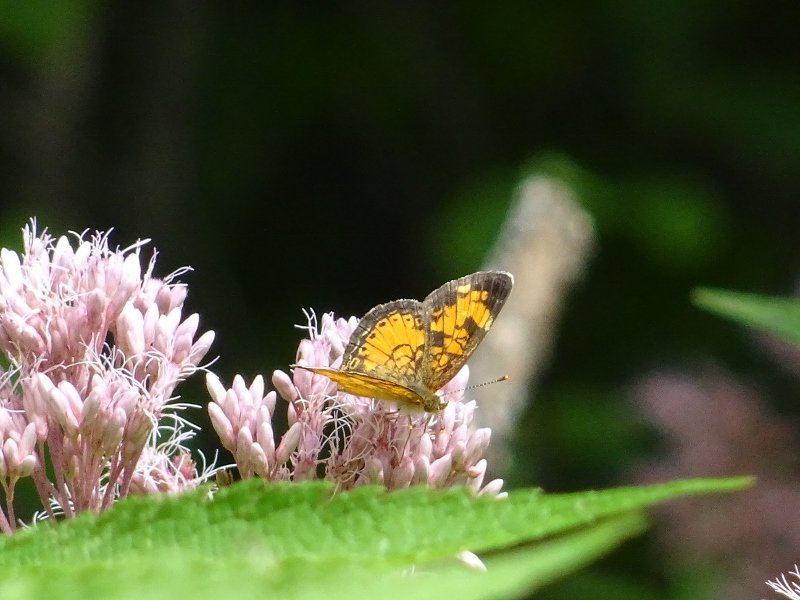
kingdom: Animalia
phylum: Arthropoda
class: Insecta
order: Lepidoptera
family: Nymphalidae
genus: Phyciodes
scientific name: Phyciodes tharos
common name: Northern Crescent
